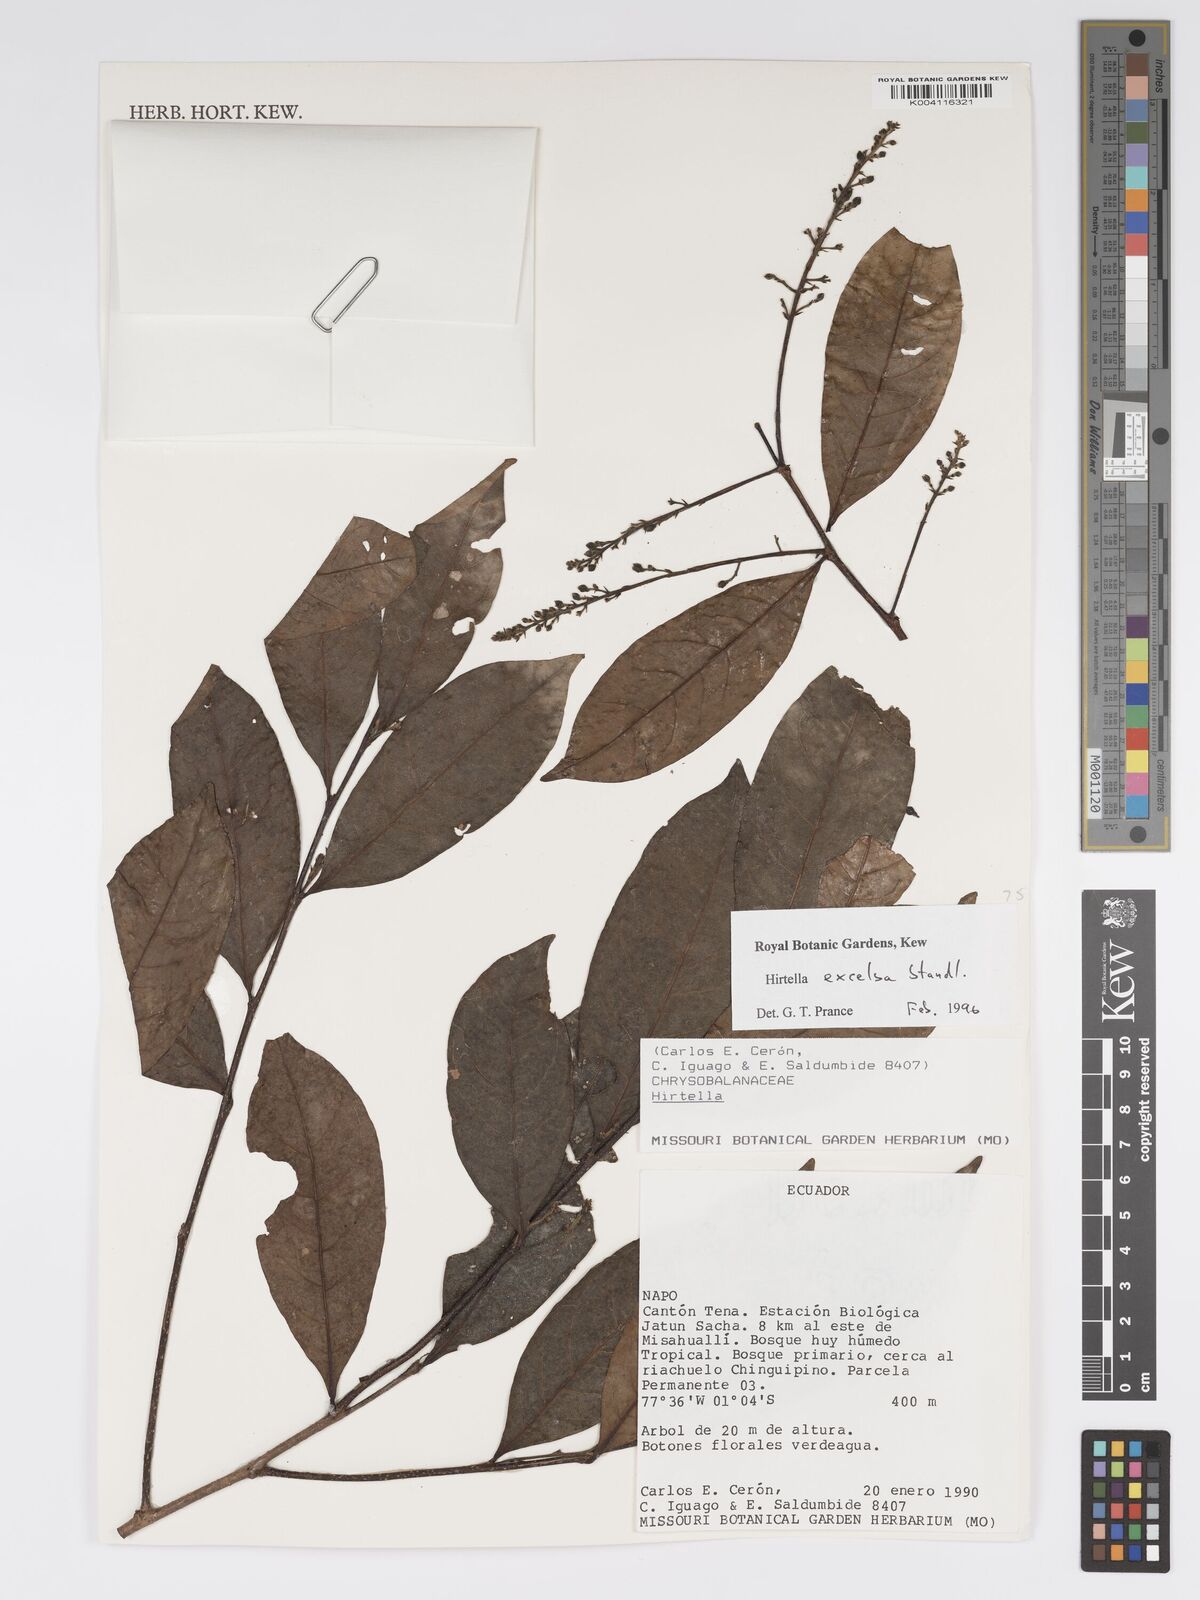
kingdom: Plantae
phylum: Tracheophyta
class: Magnoliopsida
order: Malpighiales
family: Chrysobalanaceae
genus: Hirtella
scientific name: Hirtella excelsa
